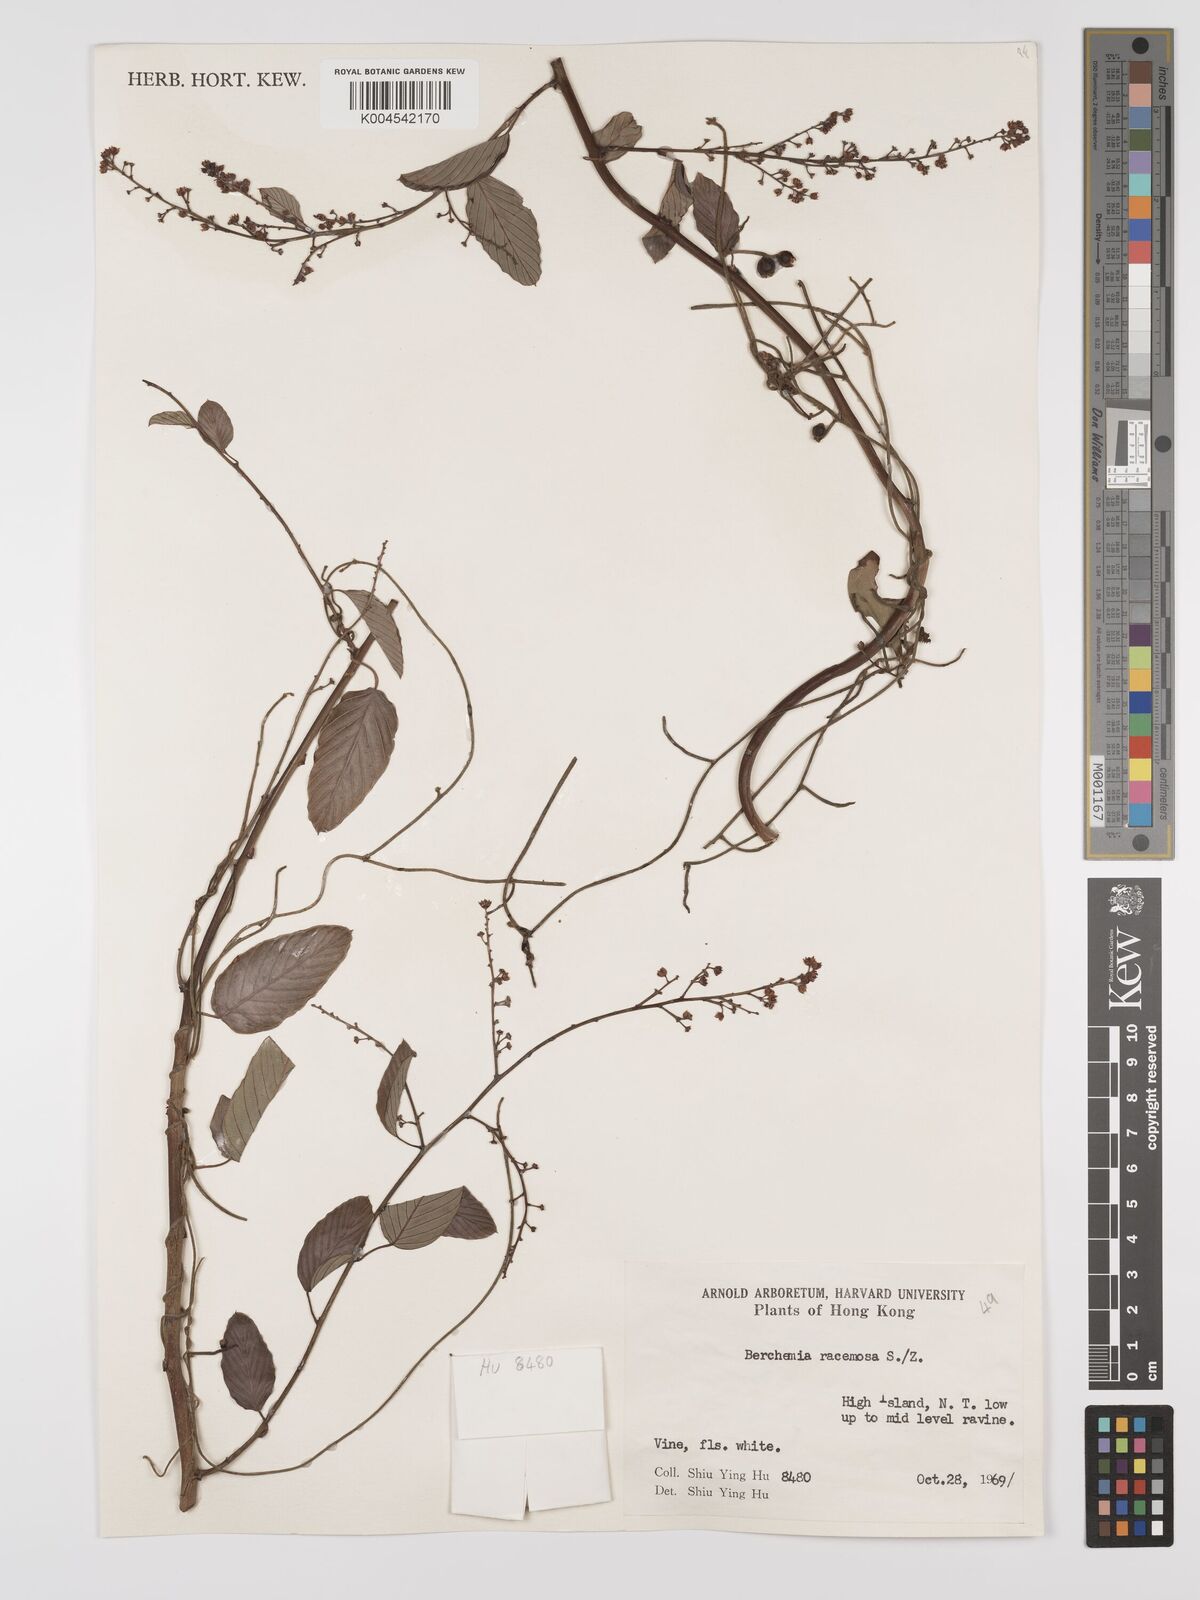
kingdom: Plantae
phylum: Tracheophyta
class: Magnoliopsida
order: Rosales
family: Rhamnaceae
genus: Berchemia
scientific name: Berchemia floribunda
